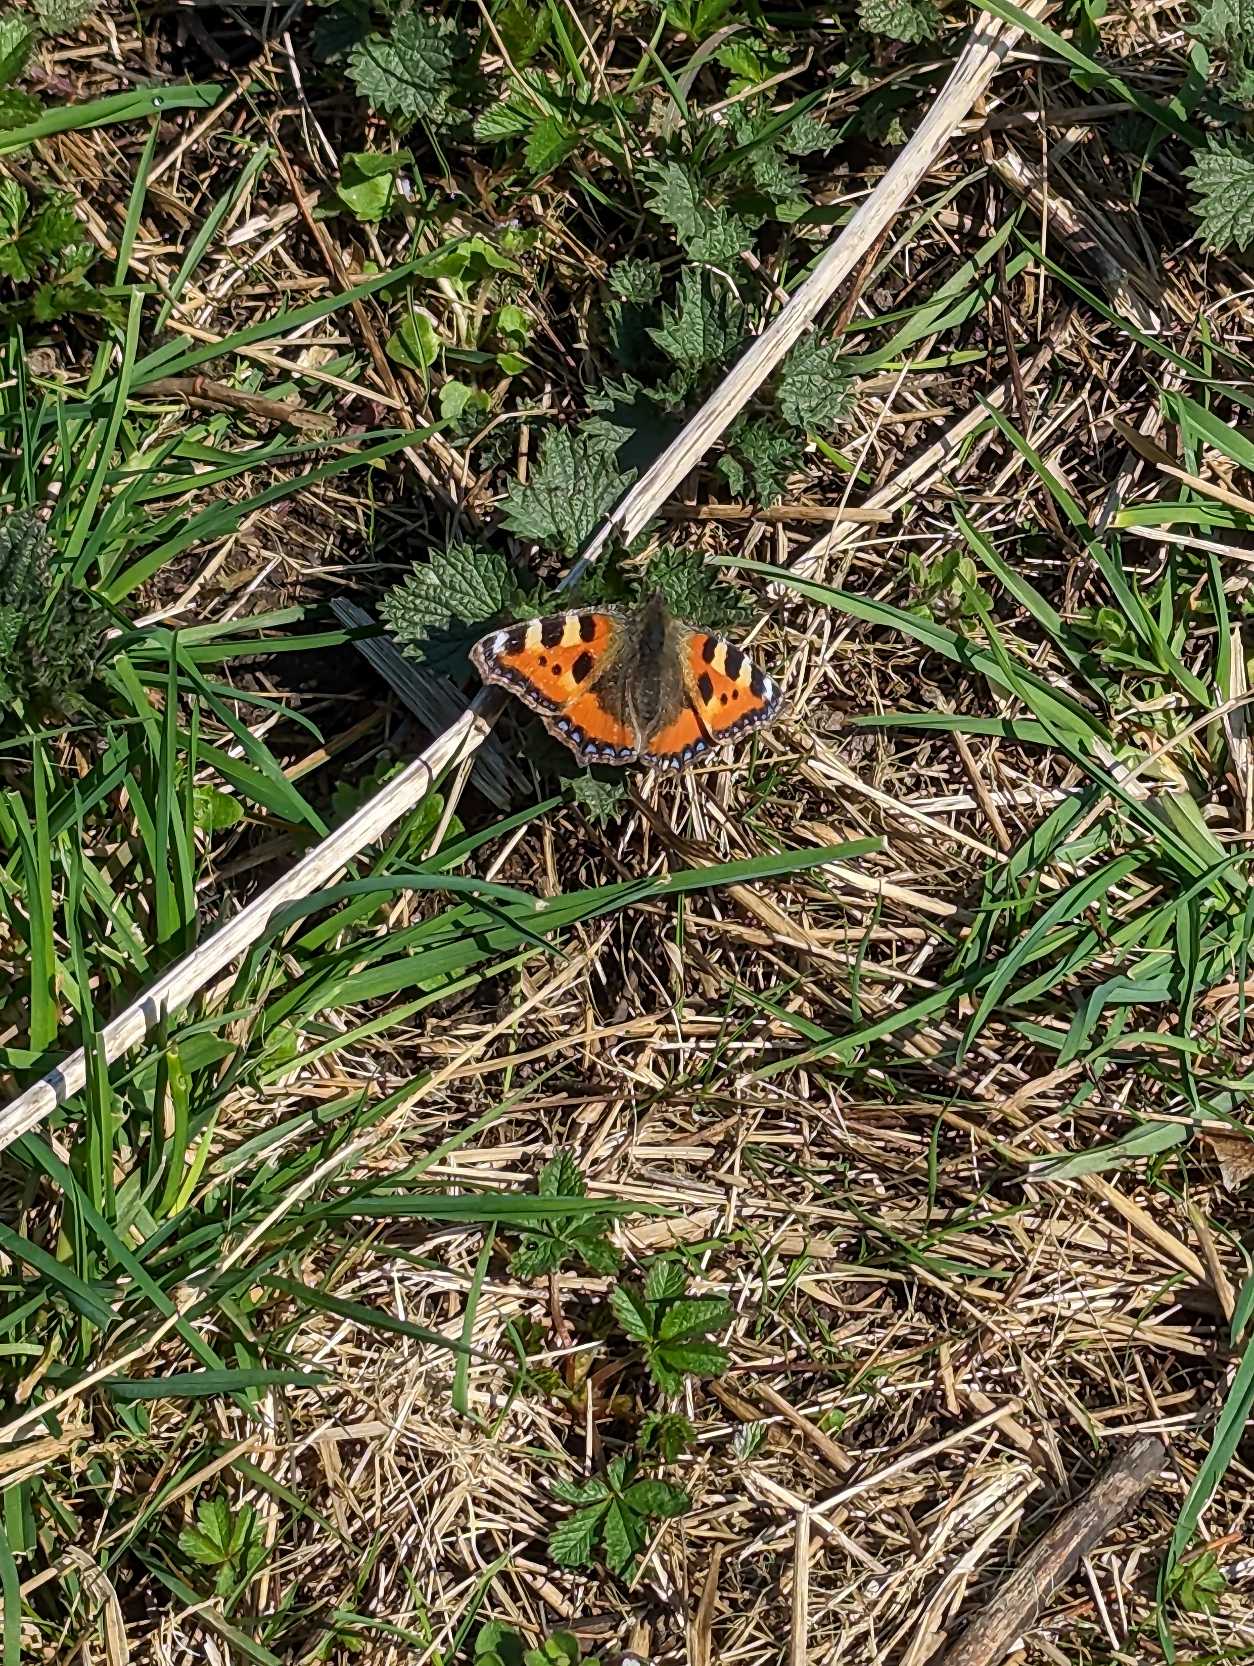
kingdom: Animalia
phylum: Arthropoda
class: Insecta
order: Lepidoptera
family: Nymphalidae
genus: Aglais
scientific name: Aglais urticae
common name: Nældens takvinge
